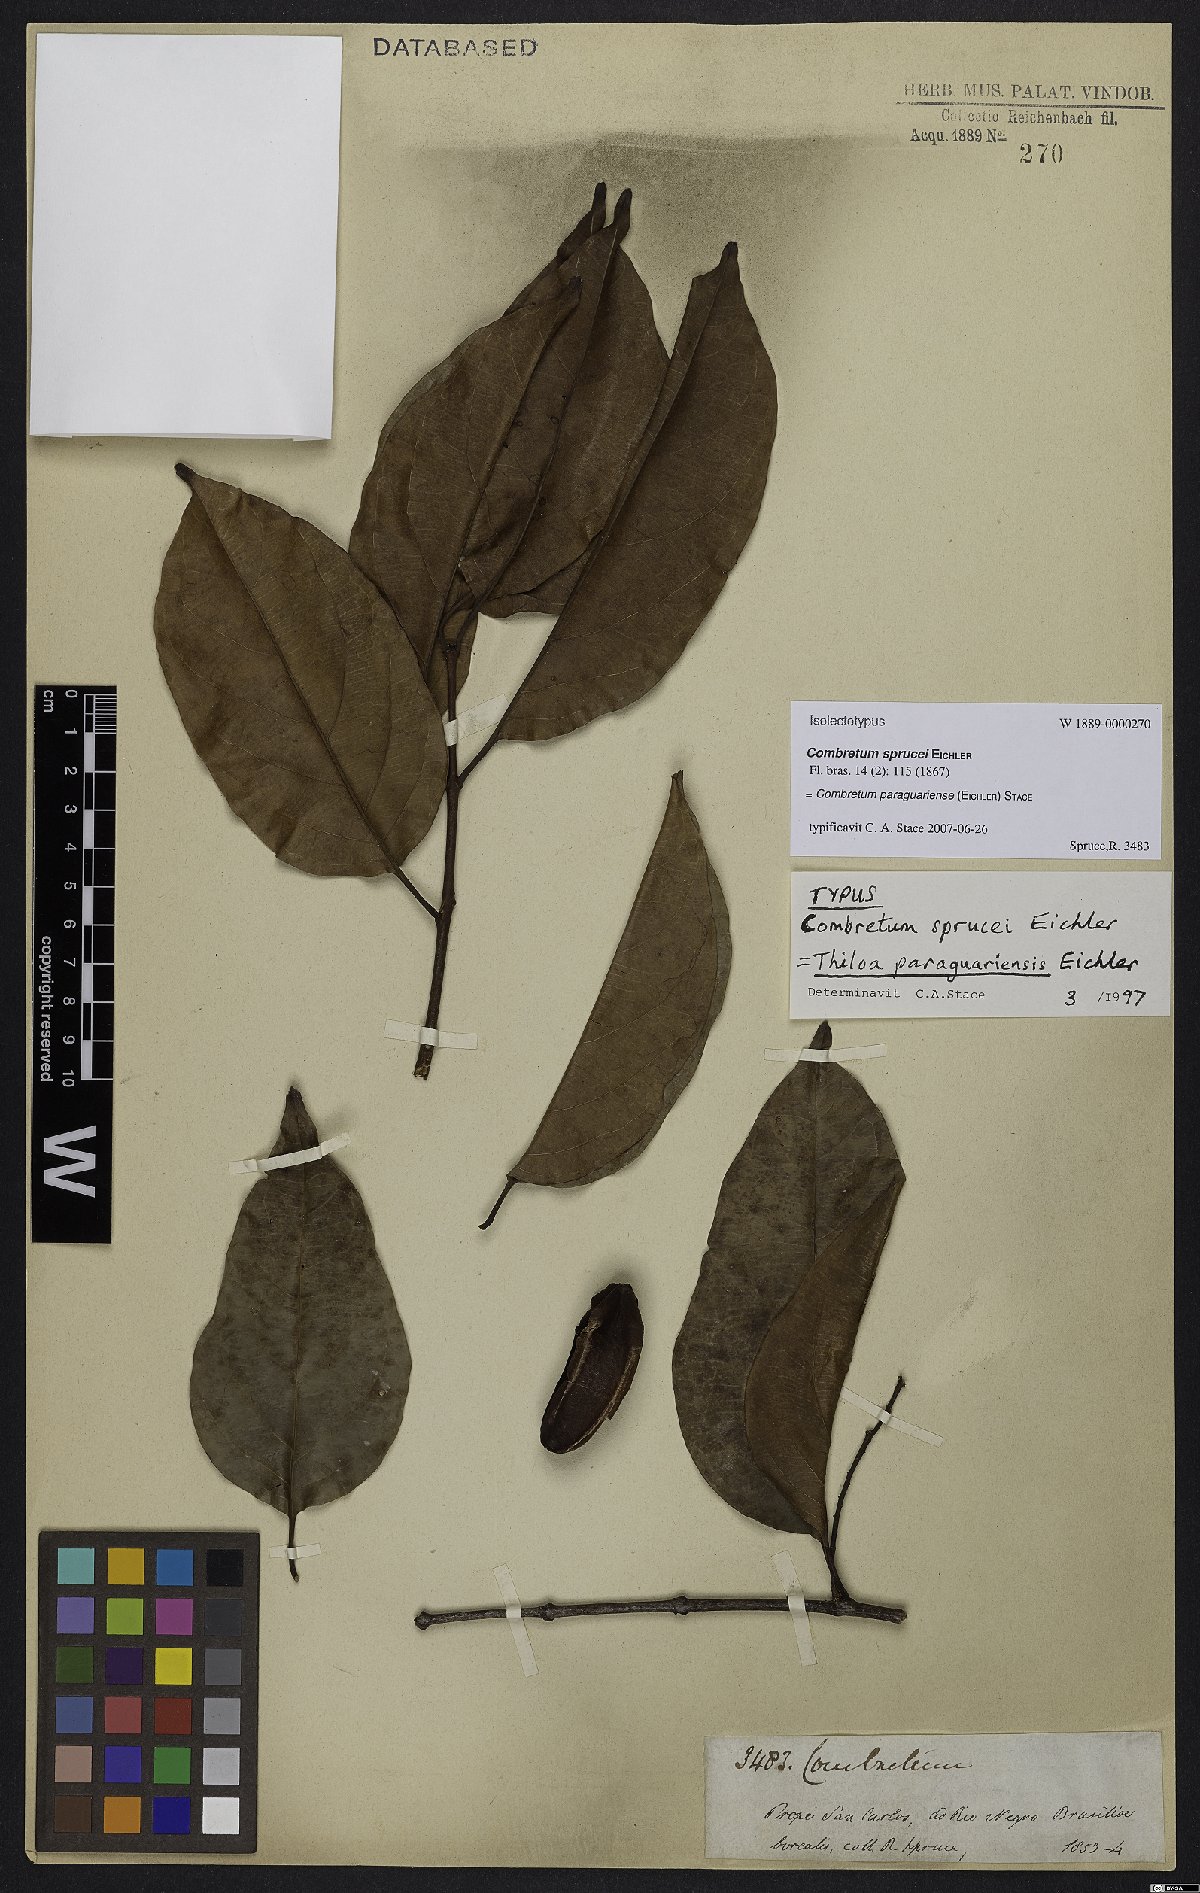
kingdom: Plantae
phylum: Tracheophyta
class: Magnoliopsida
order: Myrtales
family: Combretaceae
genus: Combretum
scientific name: Combretum paraguariense
